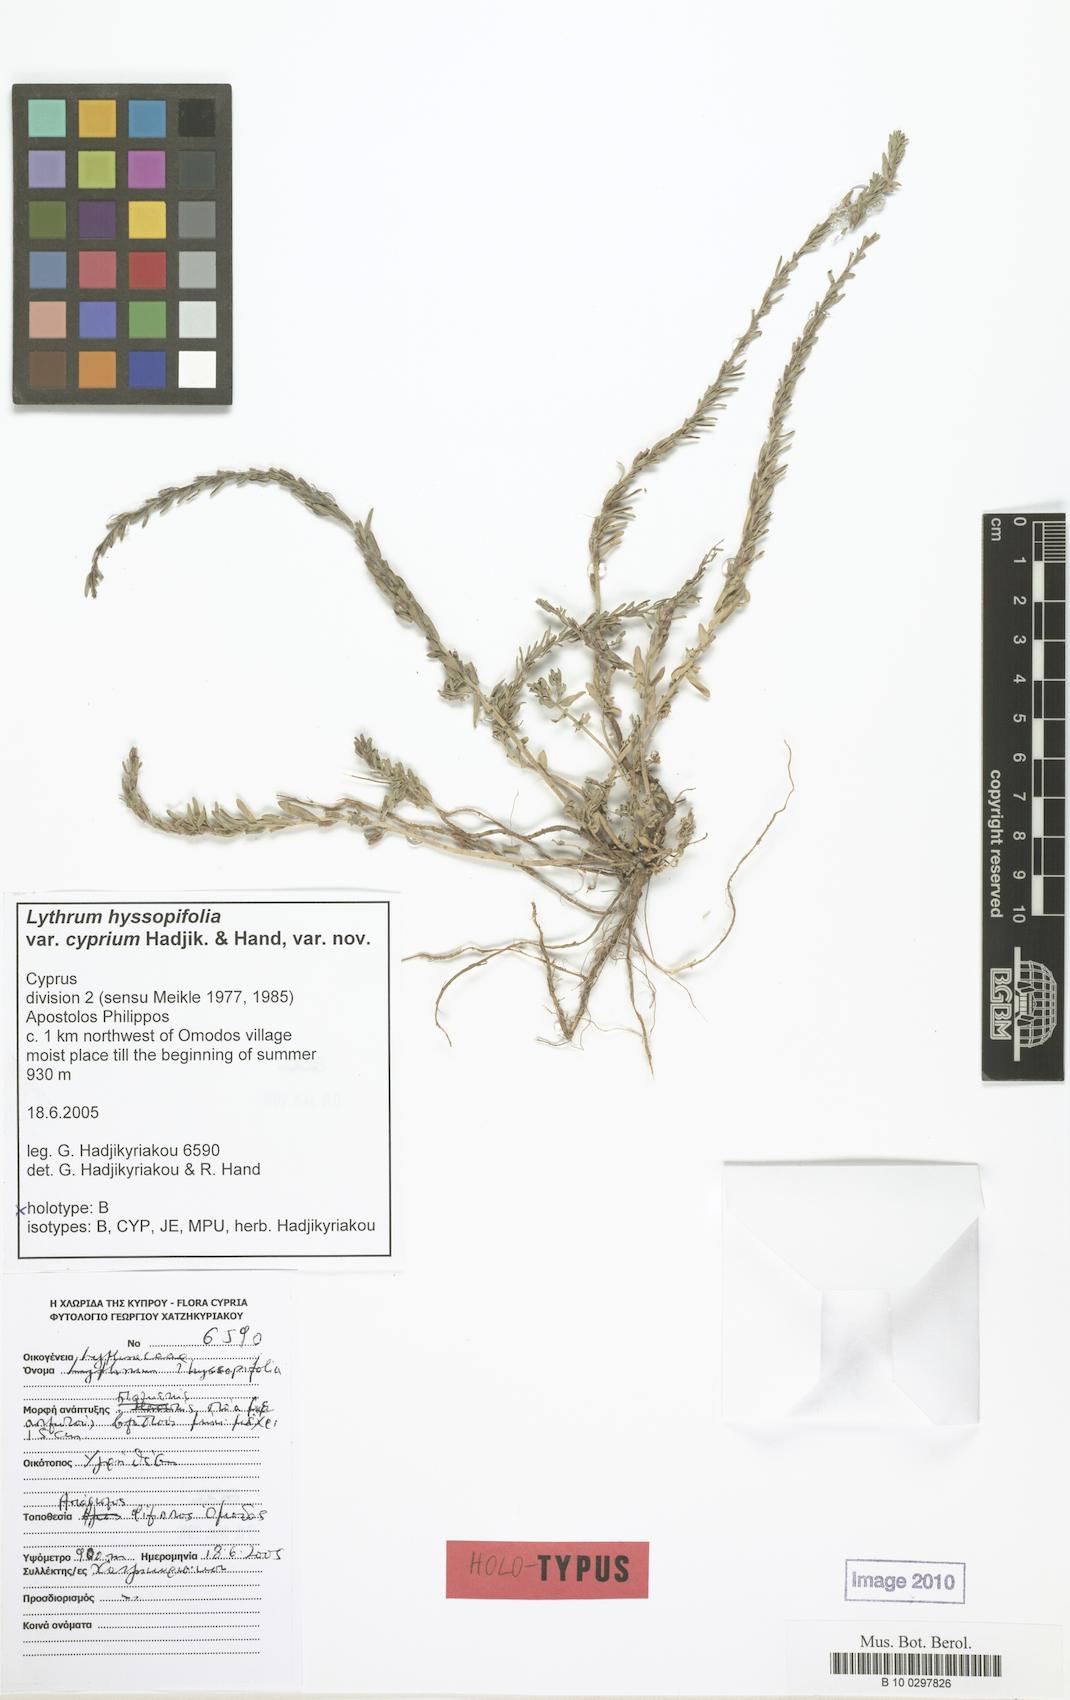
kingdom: Plantae
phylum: Tracheophyta
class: Magnoliopsida
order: Myrtales
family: Lythraceae
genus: Lythrum
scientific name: Lythrum hyssopifolia
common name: Grass-poly
